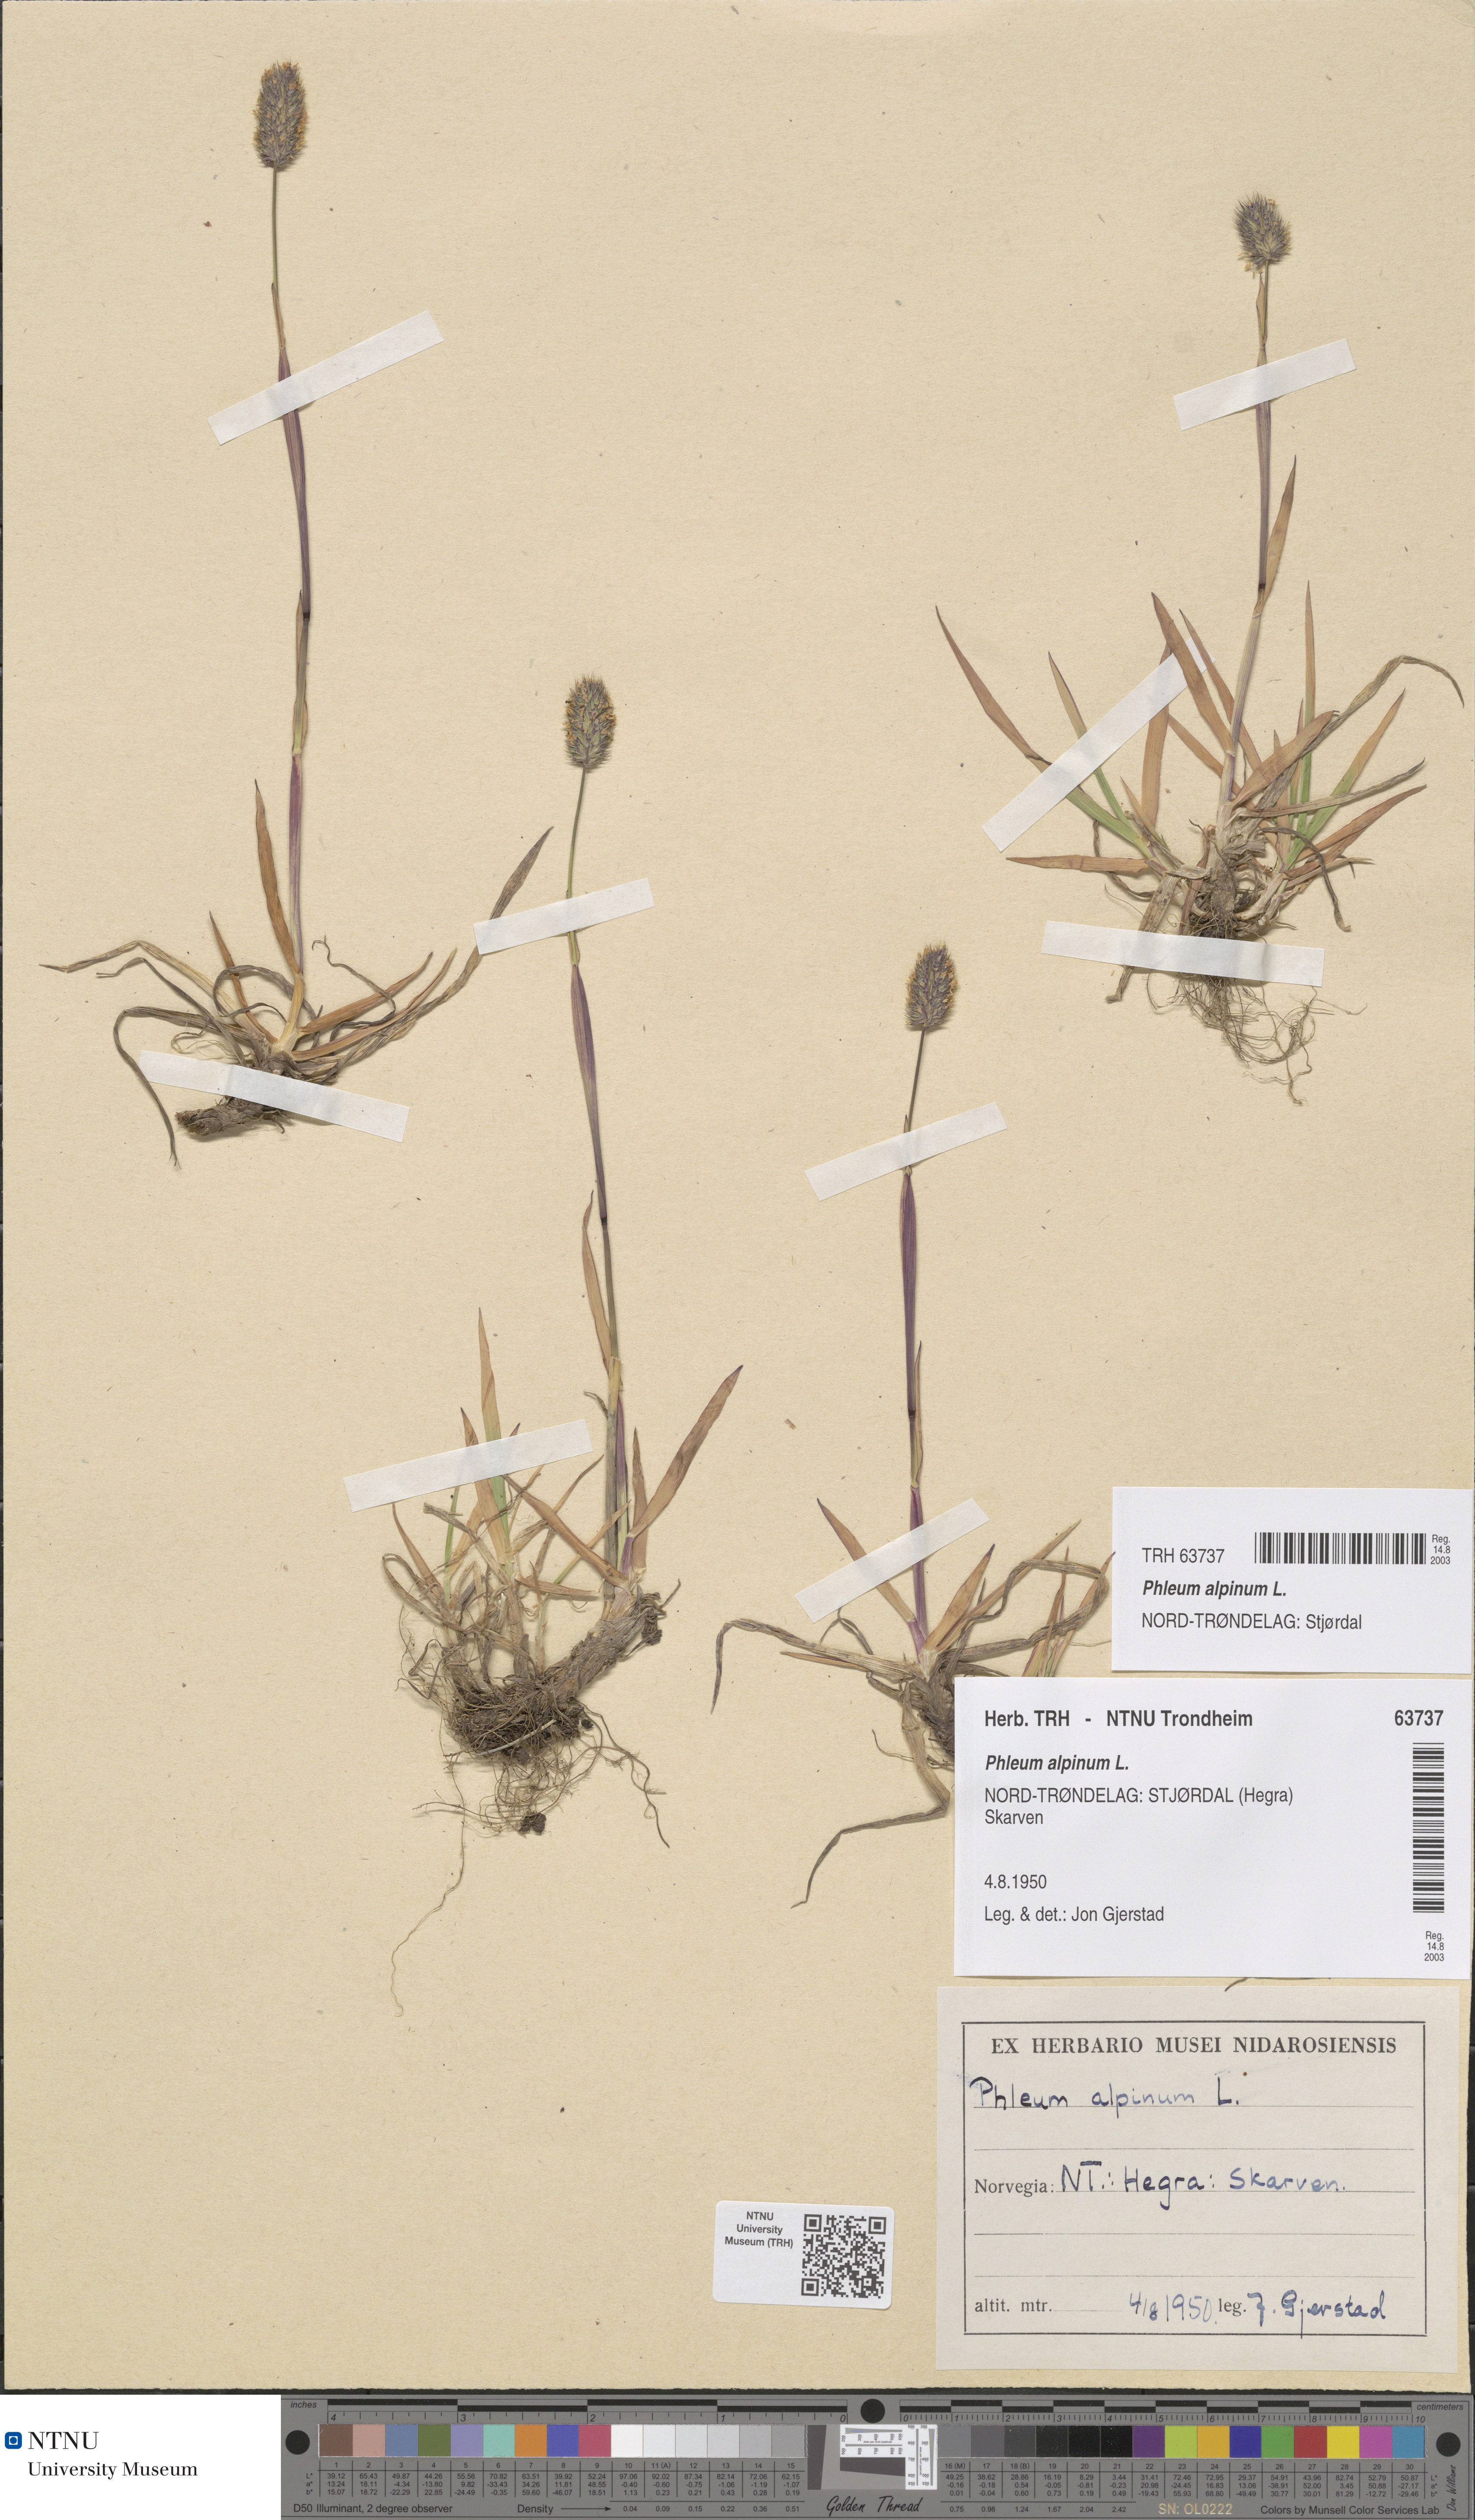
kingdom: Plantae
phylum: Tracheophyta
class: Liliopsida
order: Poales
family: Poaceae
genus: Phleum
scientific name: Phleum alpinum
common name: Alpine cat's-tail
